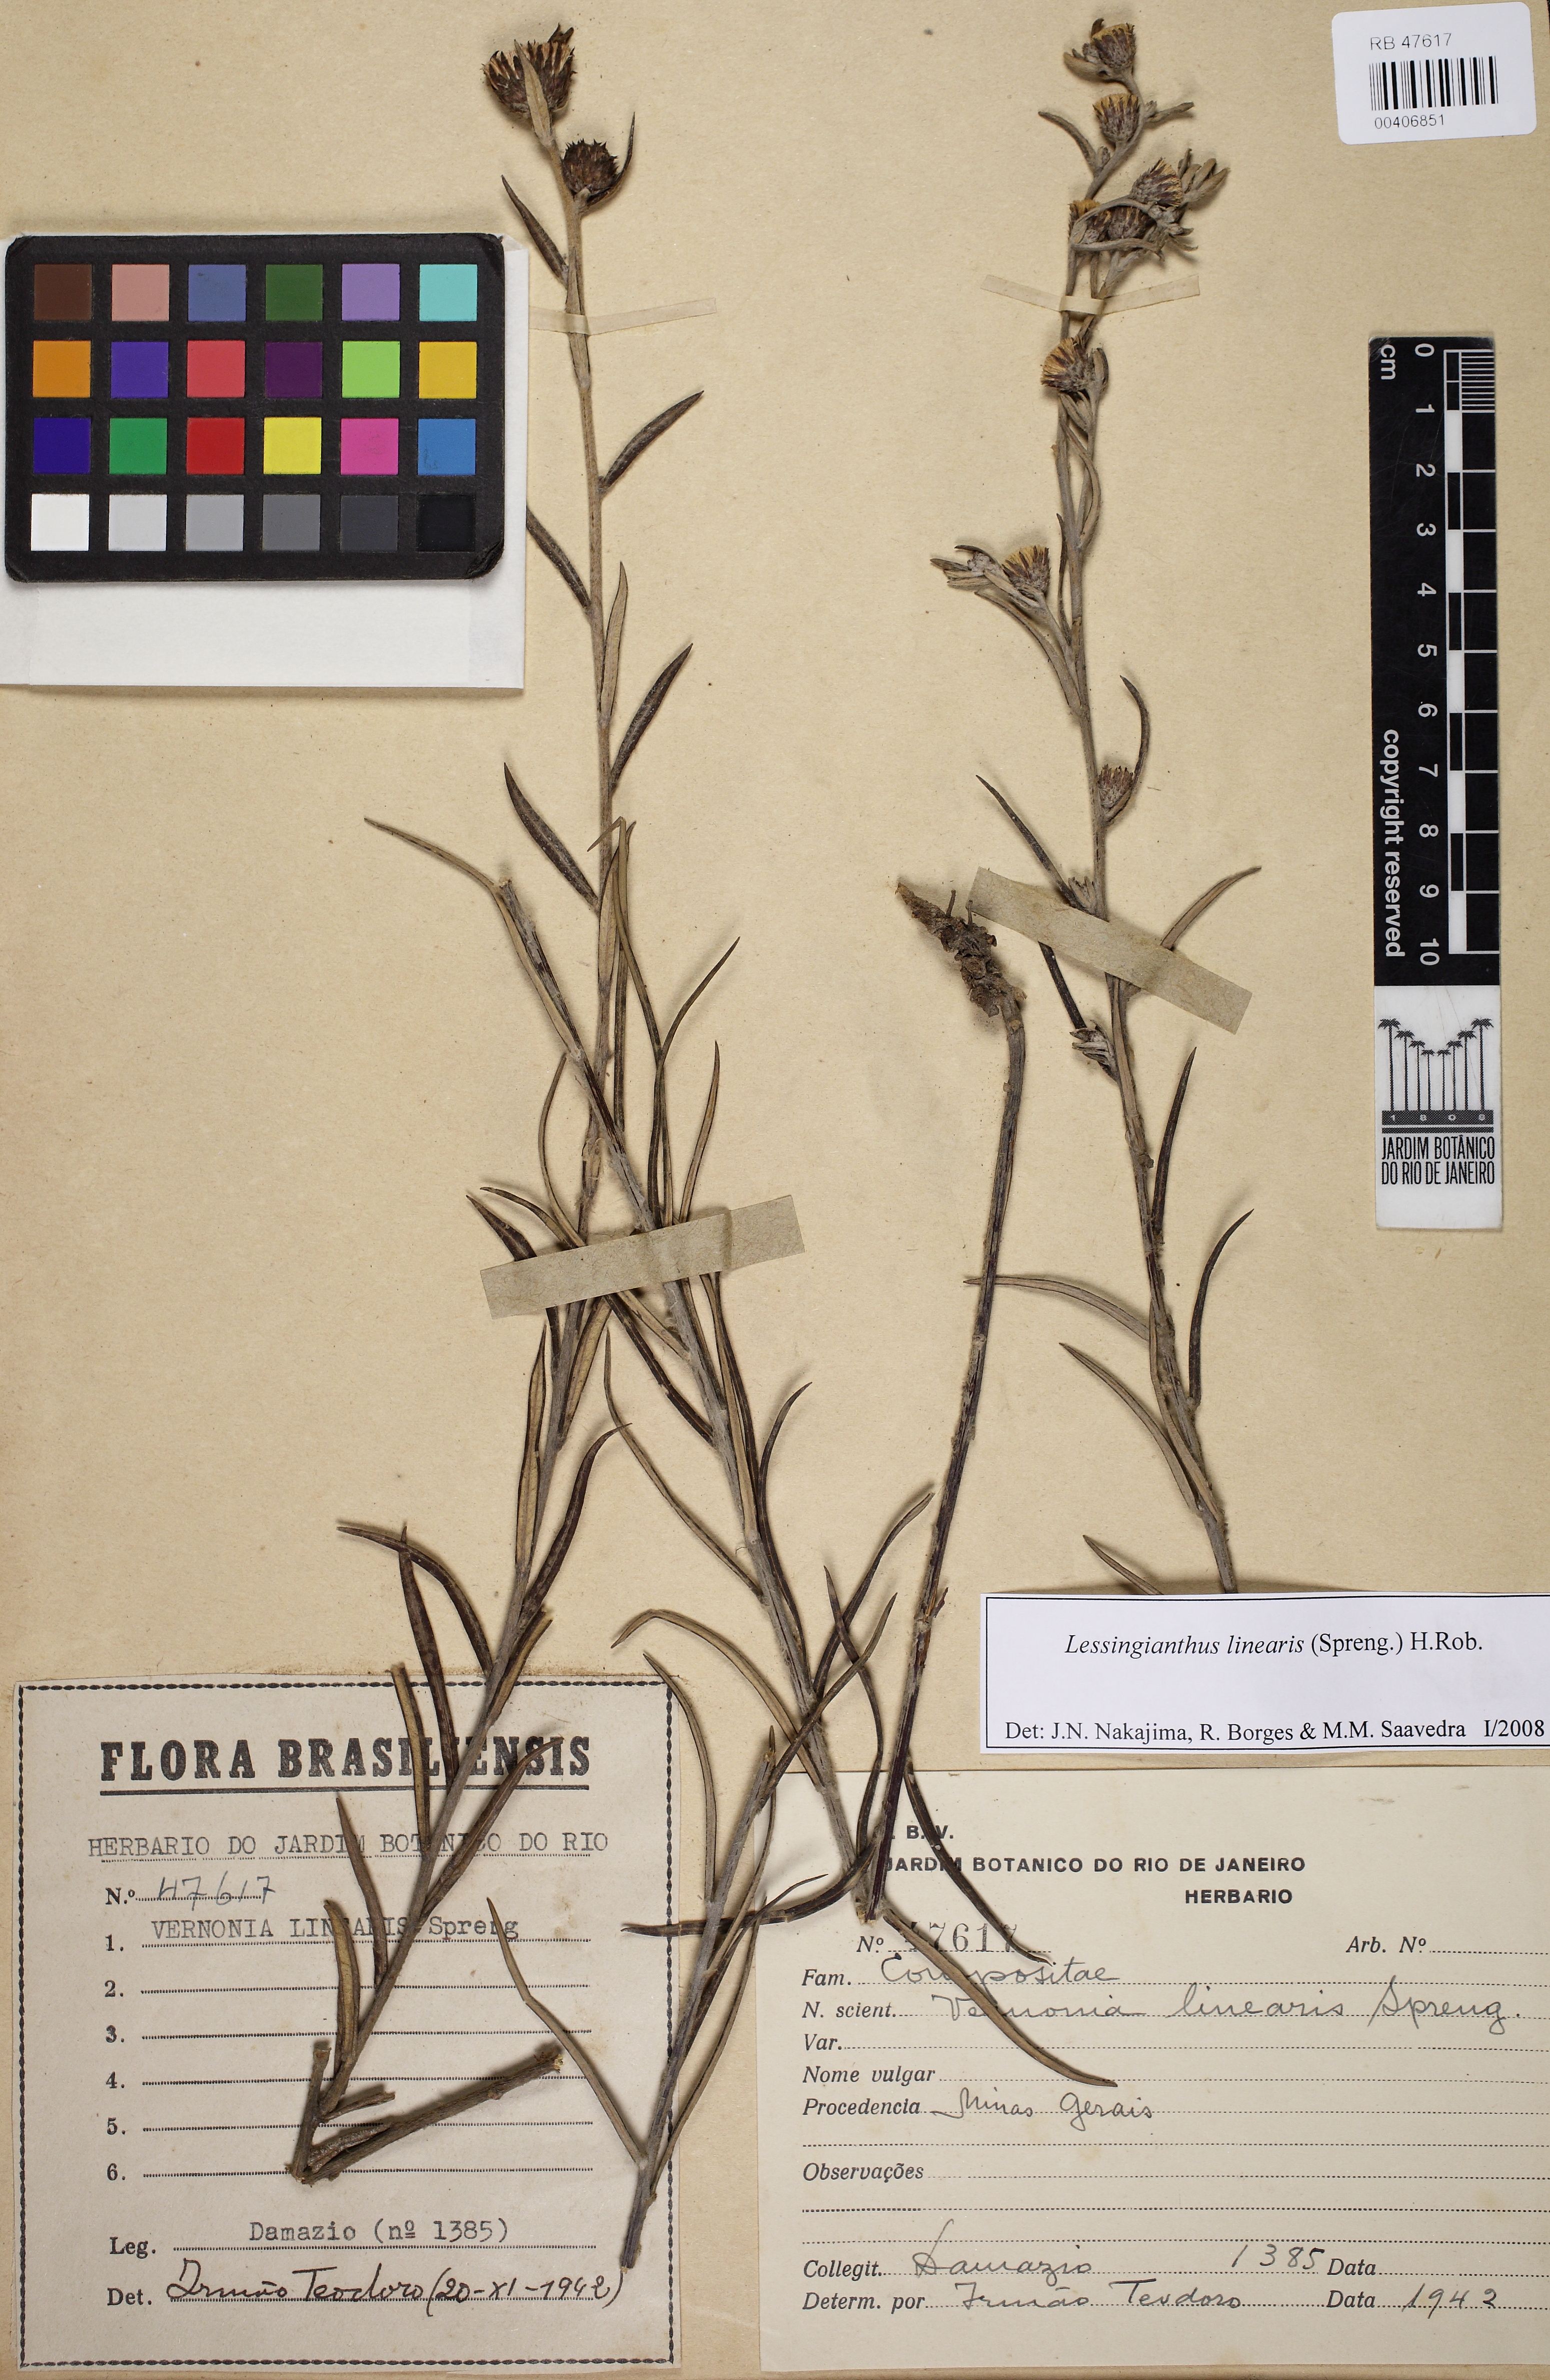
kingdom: Plantae
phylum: Tracheophyta
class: Magnoliopsida
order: Asterales
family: Asteraceae
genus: Lessingianthus
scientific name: Lessingianthus linearis
